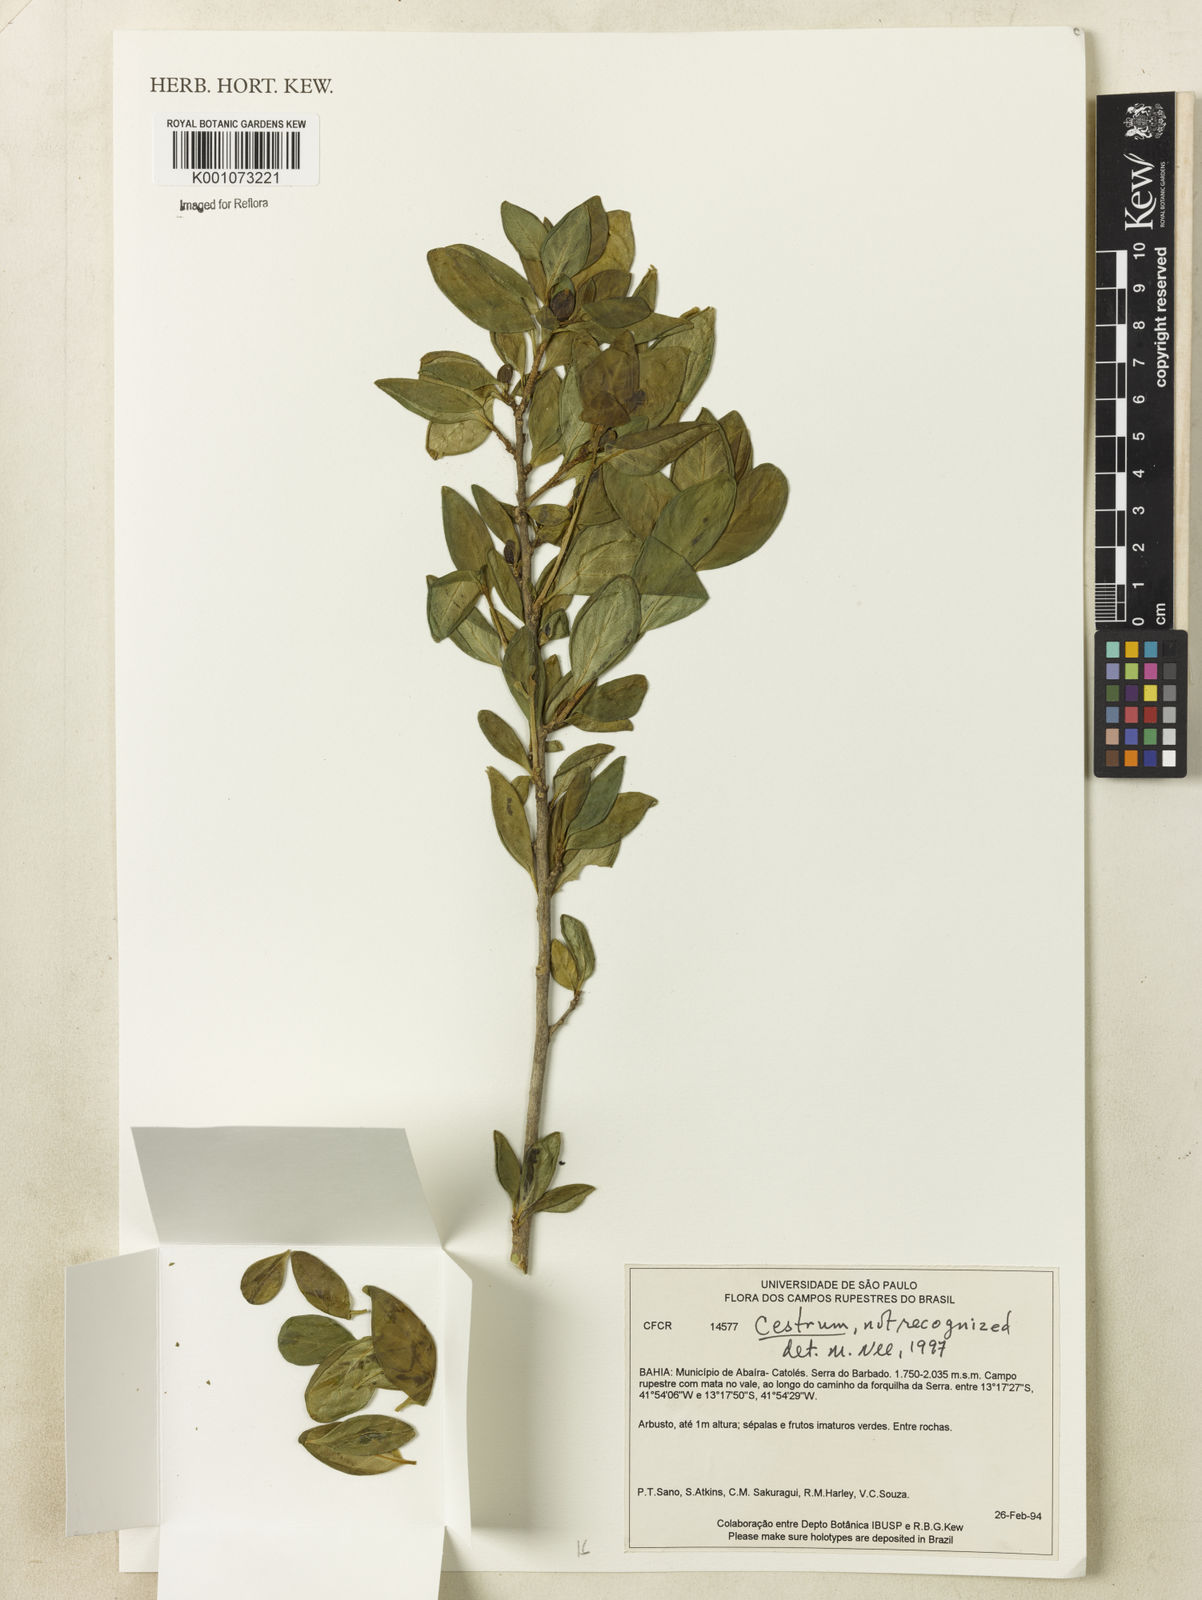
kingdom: Plantae
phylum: Tracheophyta
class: Magnoliopsida
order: Solanales
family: Solanaceae
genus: Cestrum
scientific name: Cestrum
